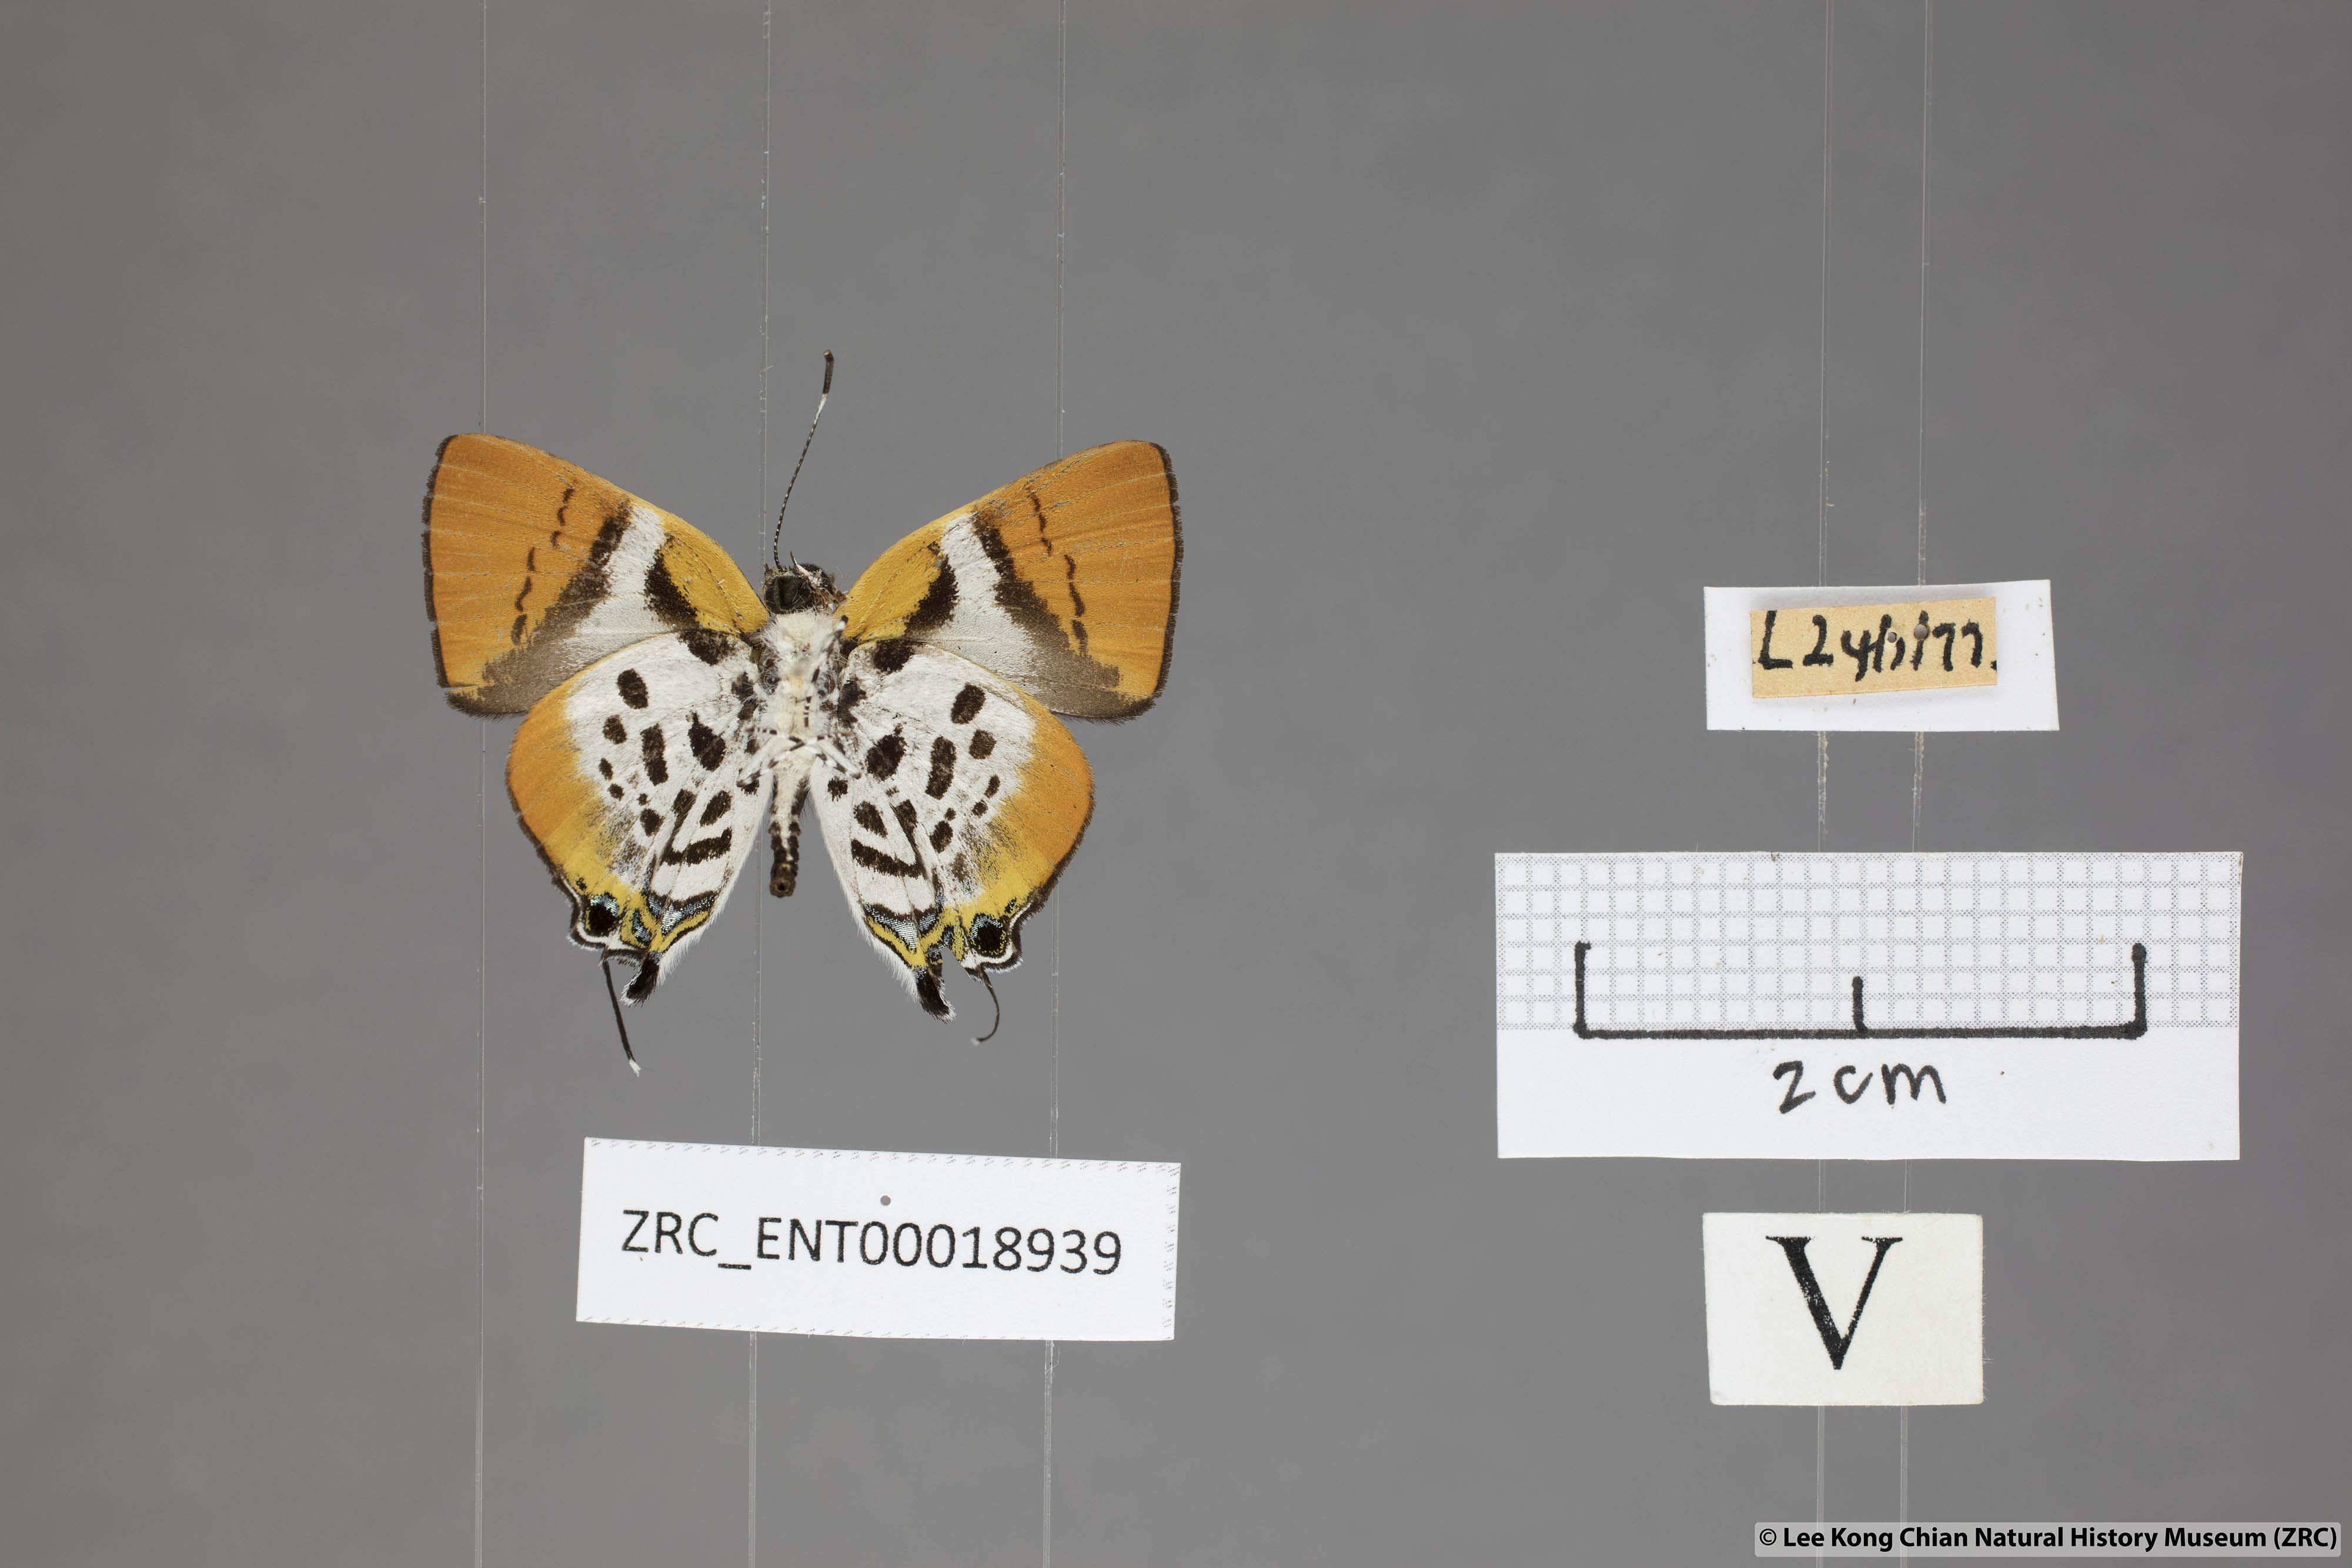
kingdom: Animalia
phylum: Arthropoda
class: Insecta
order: Lepidoptera
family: Lycaenidae
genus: Araotes
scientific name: Araotes lapithis
